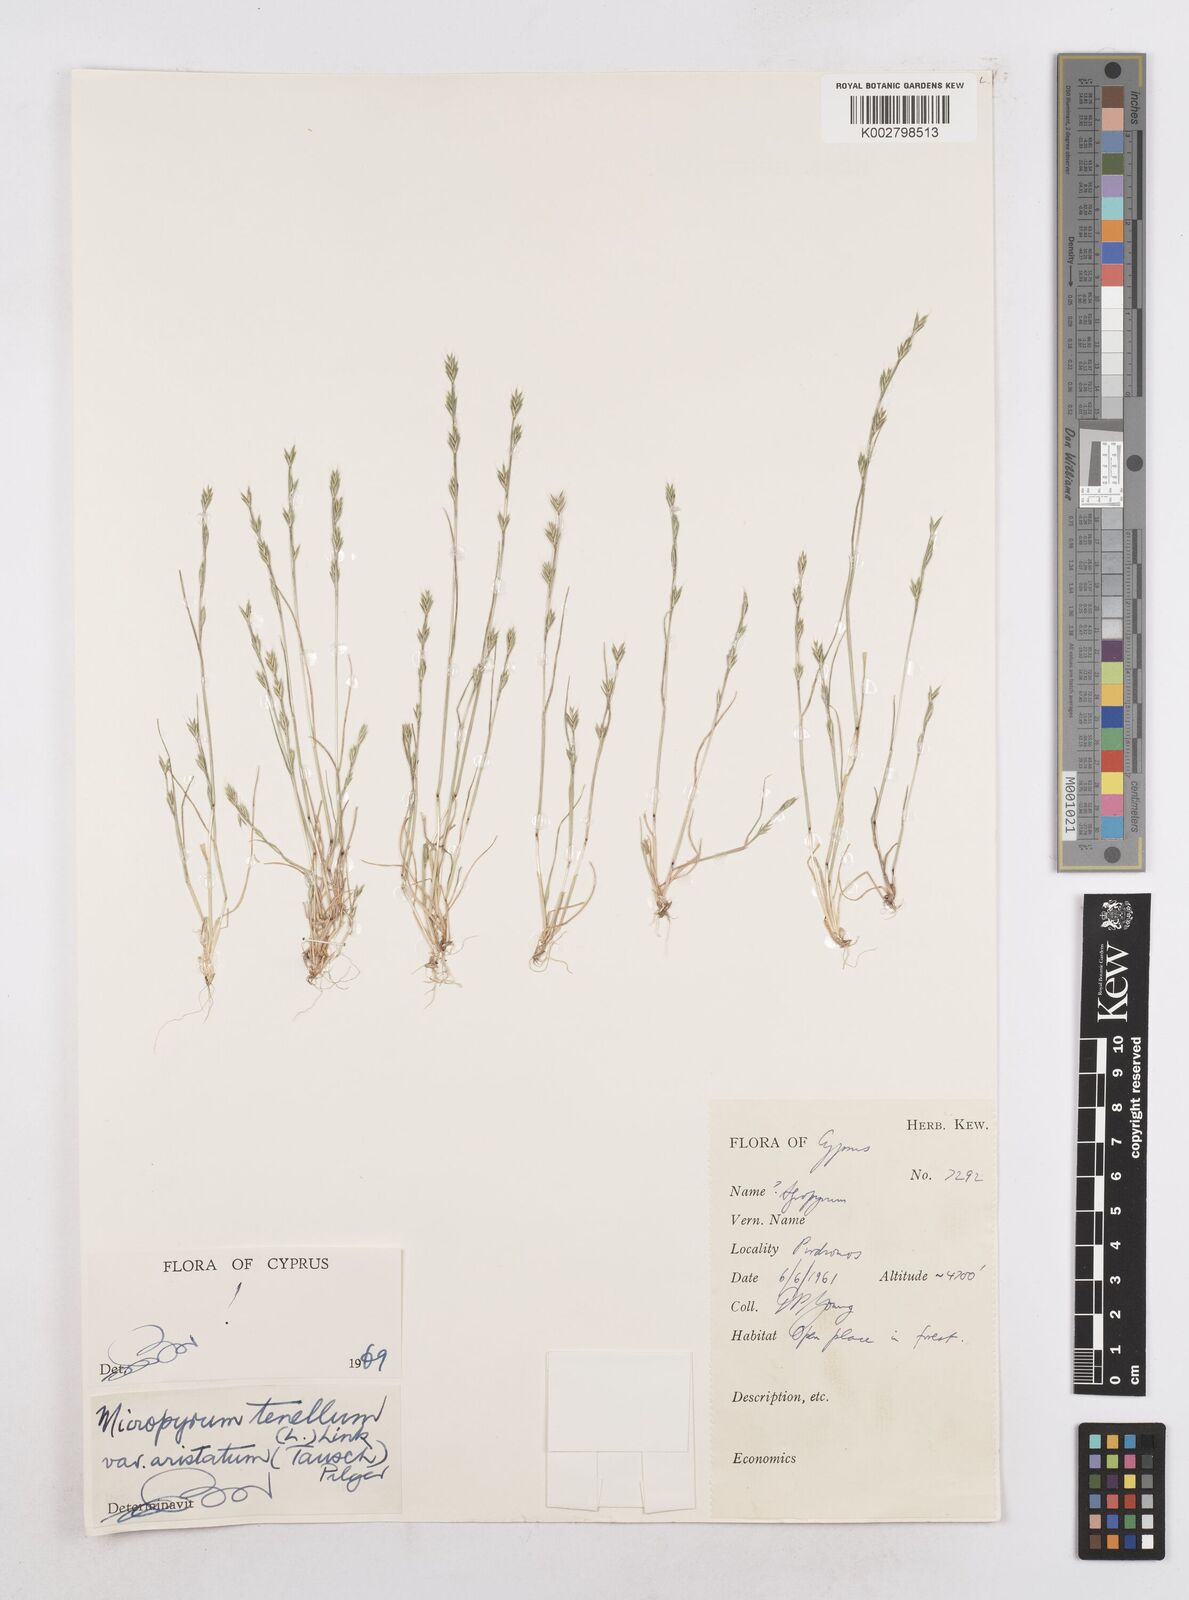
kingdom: Plantae
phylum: Tracheophyta
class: Liliopsida
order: Poales
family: Poaceae
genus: Festuca
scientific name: Festuca lachenalii
